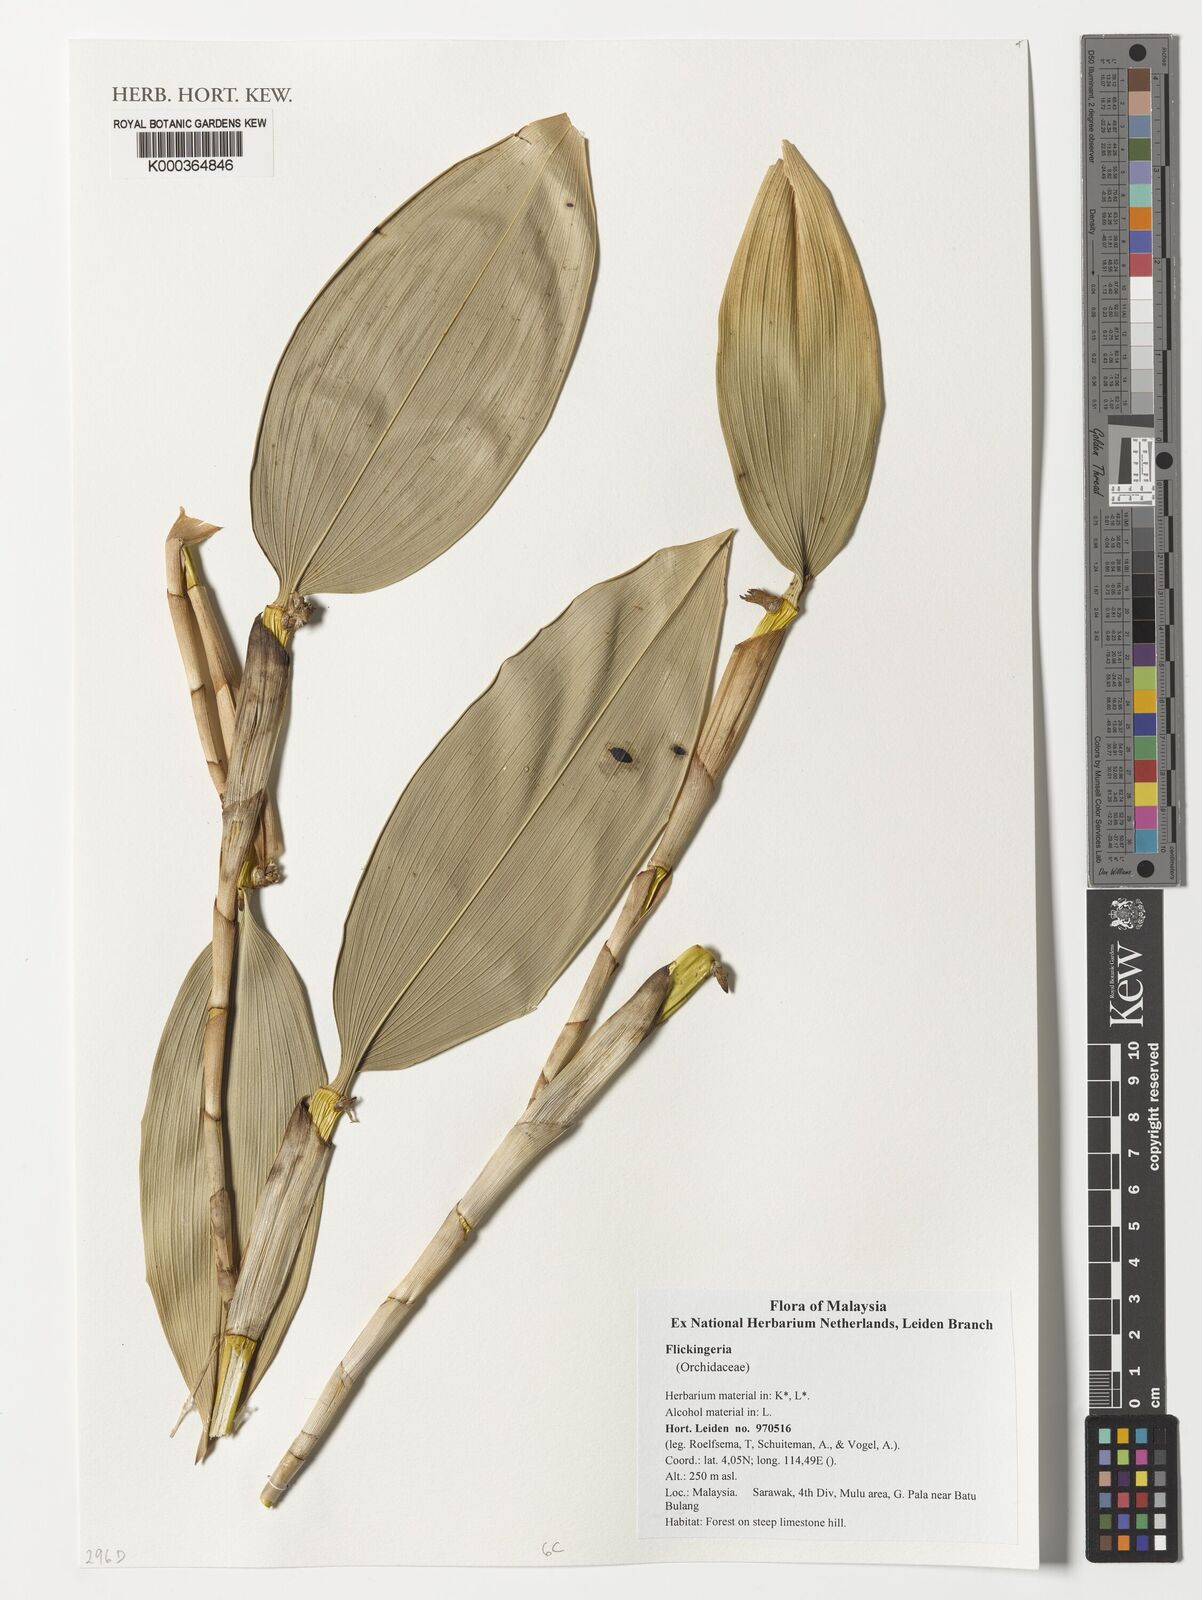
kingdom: Plantae
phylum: Tracheophyta
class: Liliopsida
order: Asparagales
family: Orchidaceae
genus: Dendrobium
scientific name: Dendrobium
